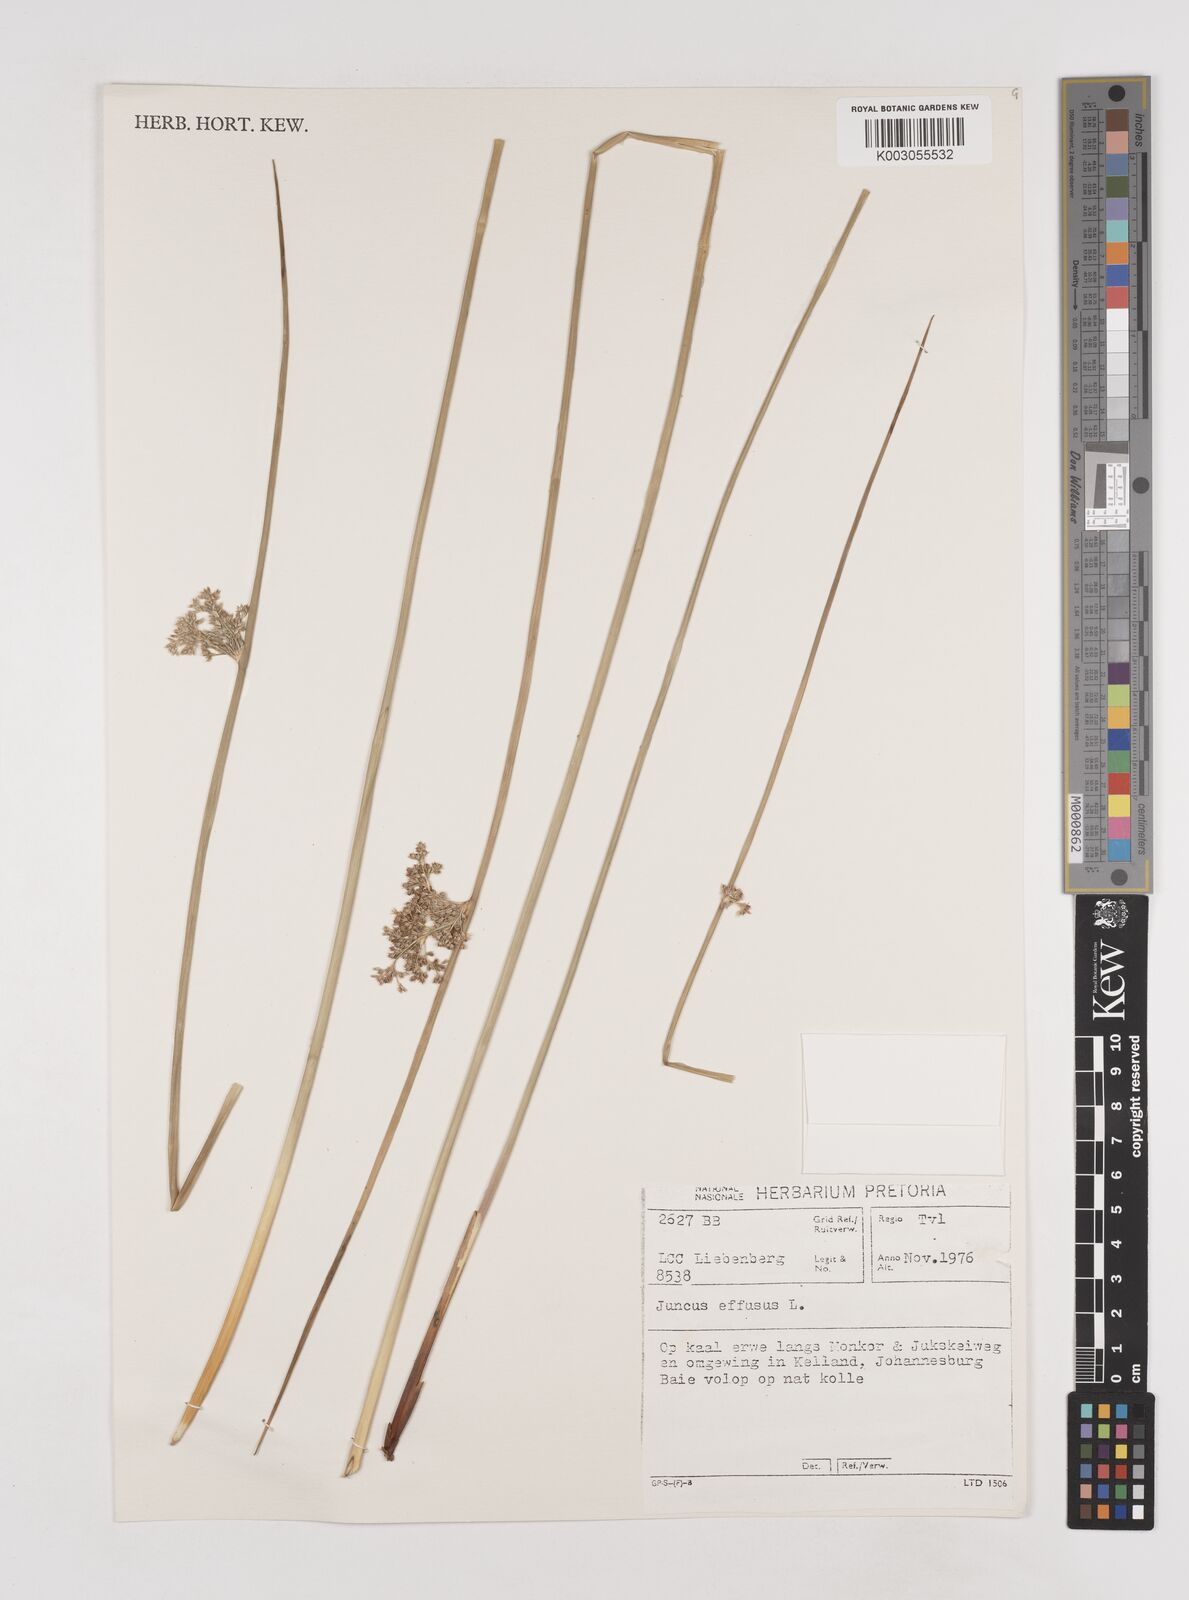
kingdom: Plantae
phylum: Tracheophyta
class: Liliopsida
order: Poales
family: Juncaceae
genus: Juncus
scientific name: Juncus effusus
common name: Soft rush
